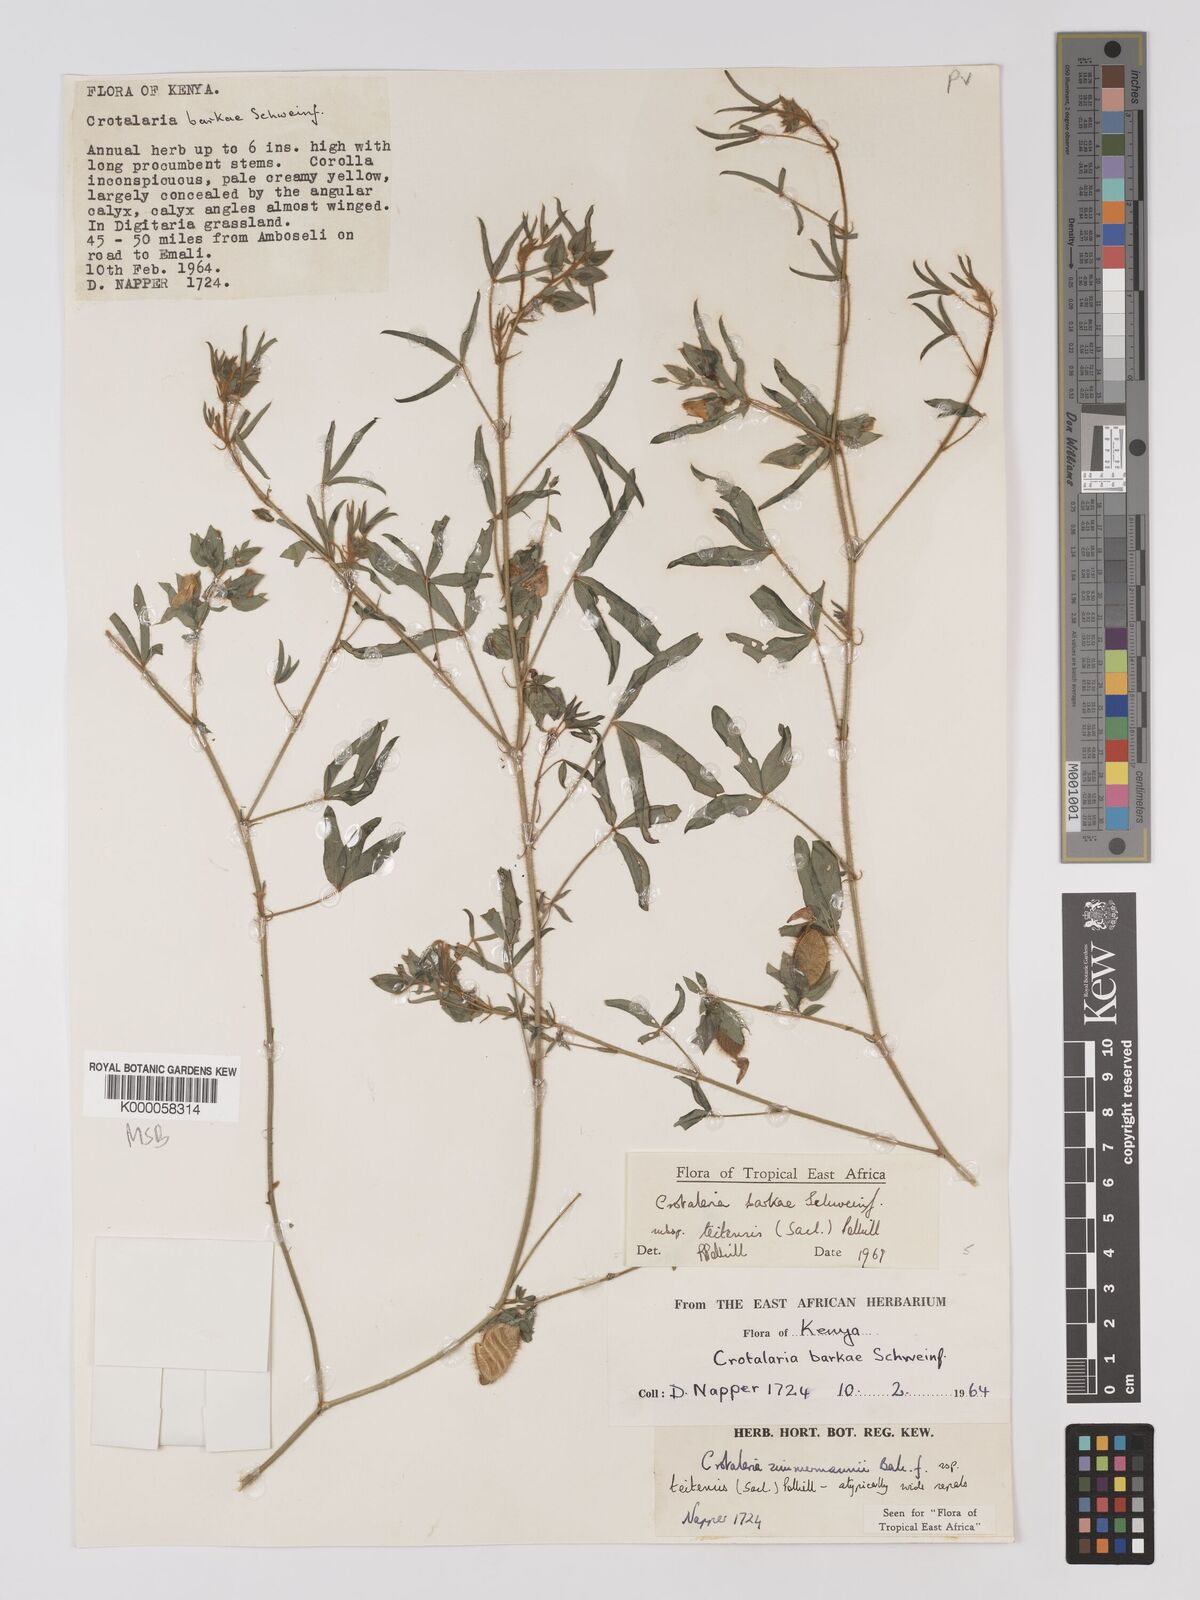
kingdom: Plantae
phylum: Tracheophyta
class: Magnoliopsida
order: Fabales
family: Fabaceae
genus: Crotalaria
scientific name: Crotalaria barkae
